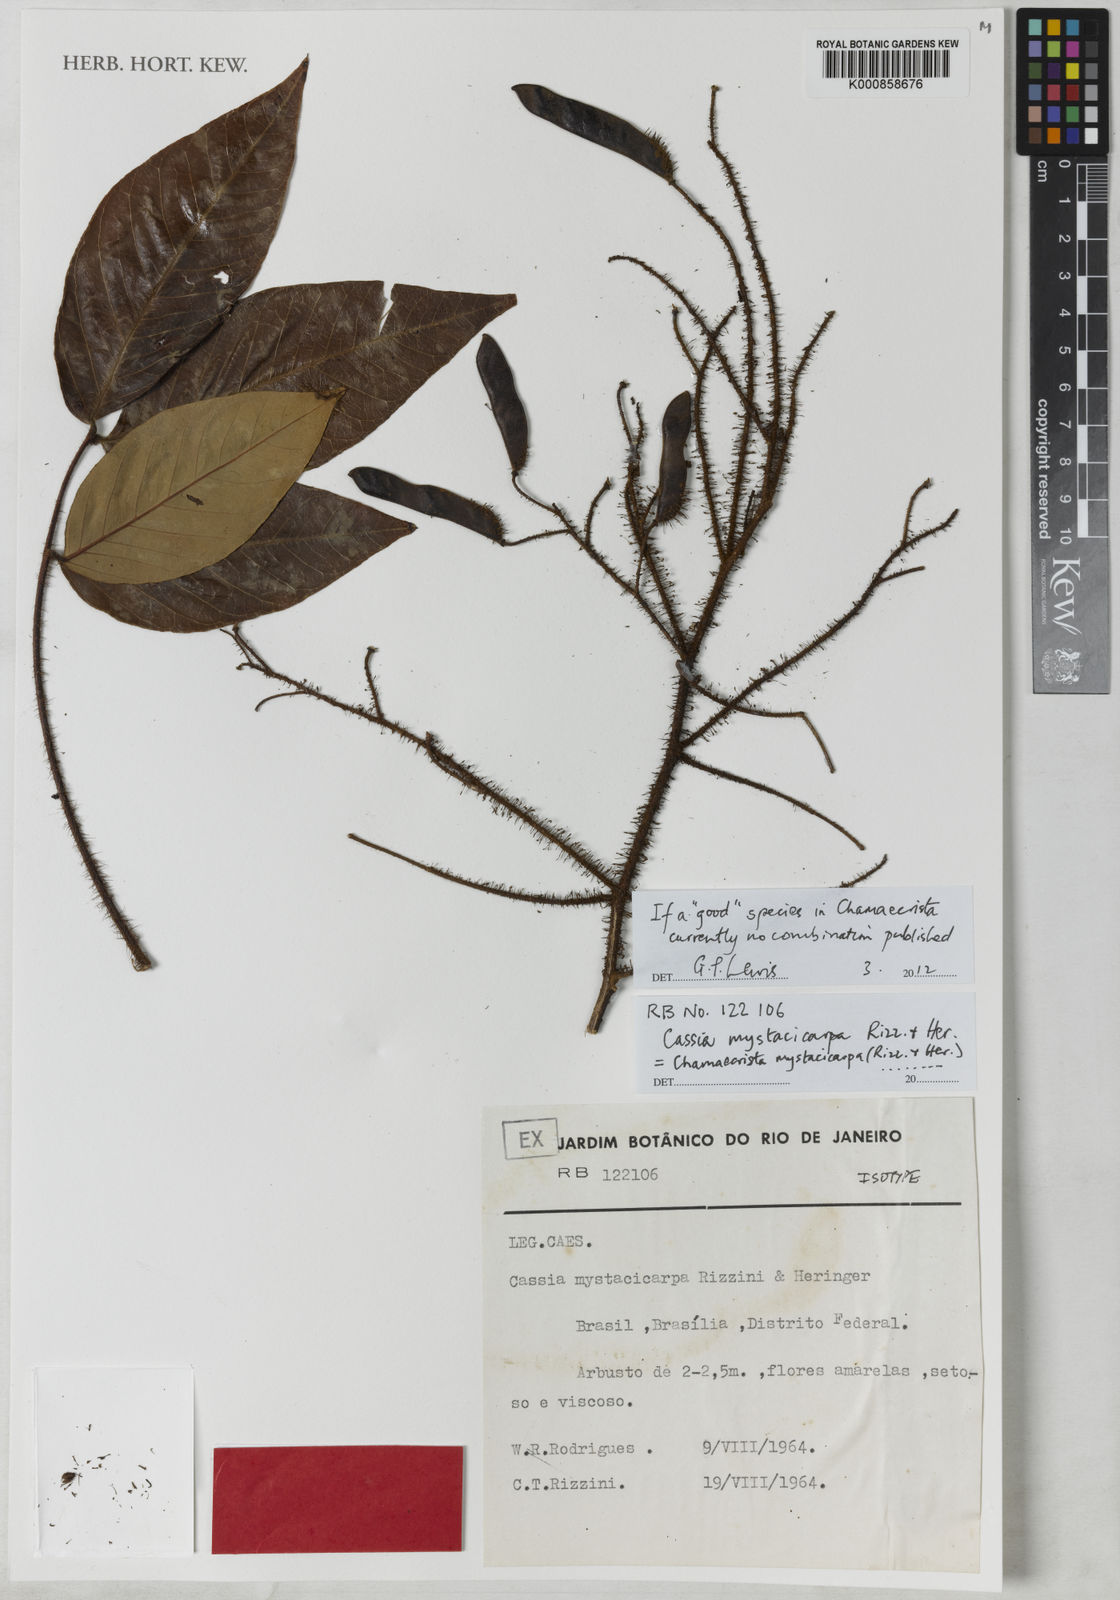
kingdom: Plantae
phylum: Tracheophyta
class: Magnoliopsida
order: Fabales
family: Fabaceae
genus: Chamaecrista
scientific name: Chamaecrista
